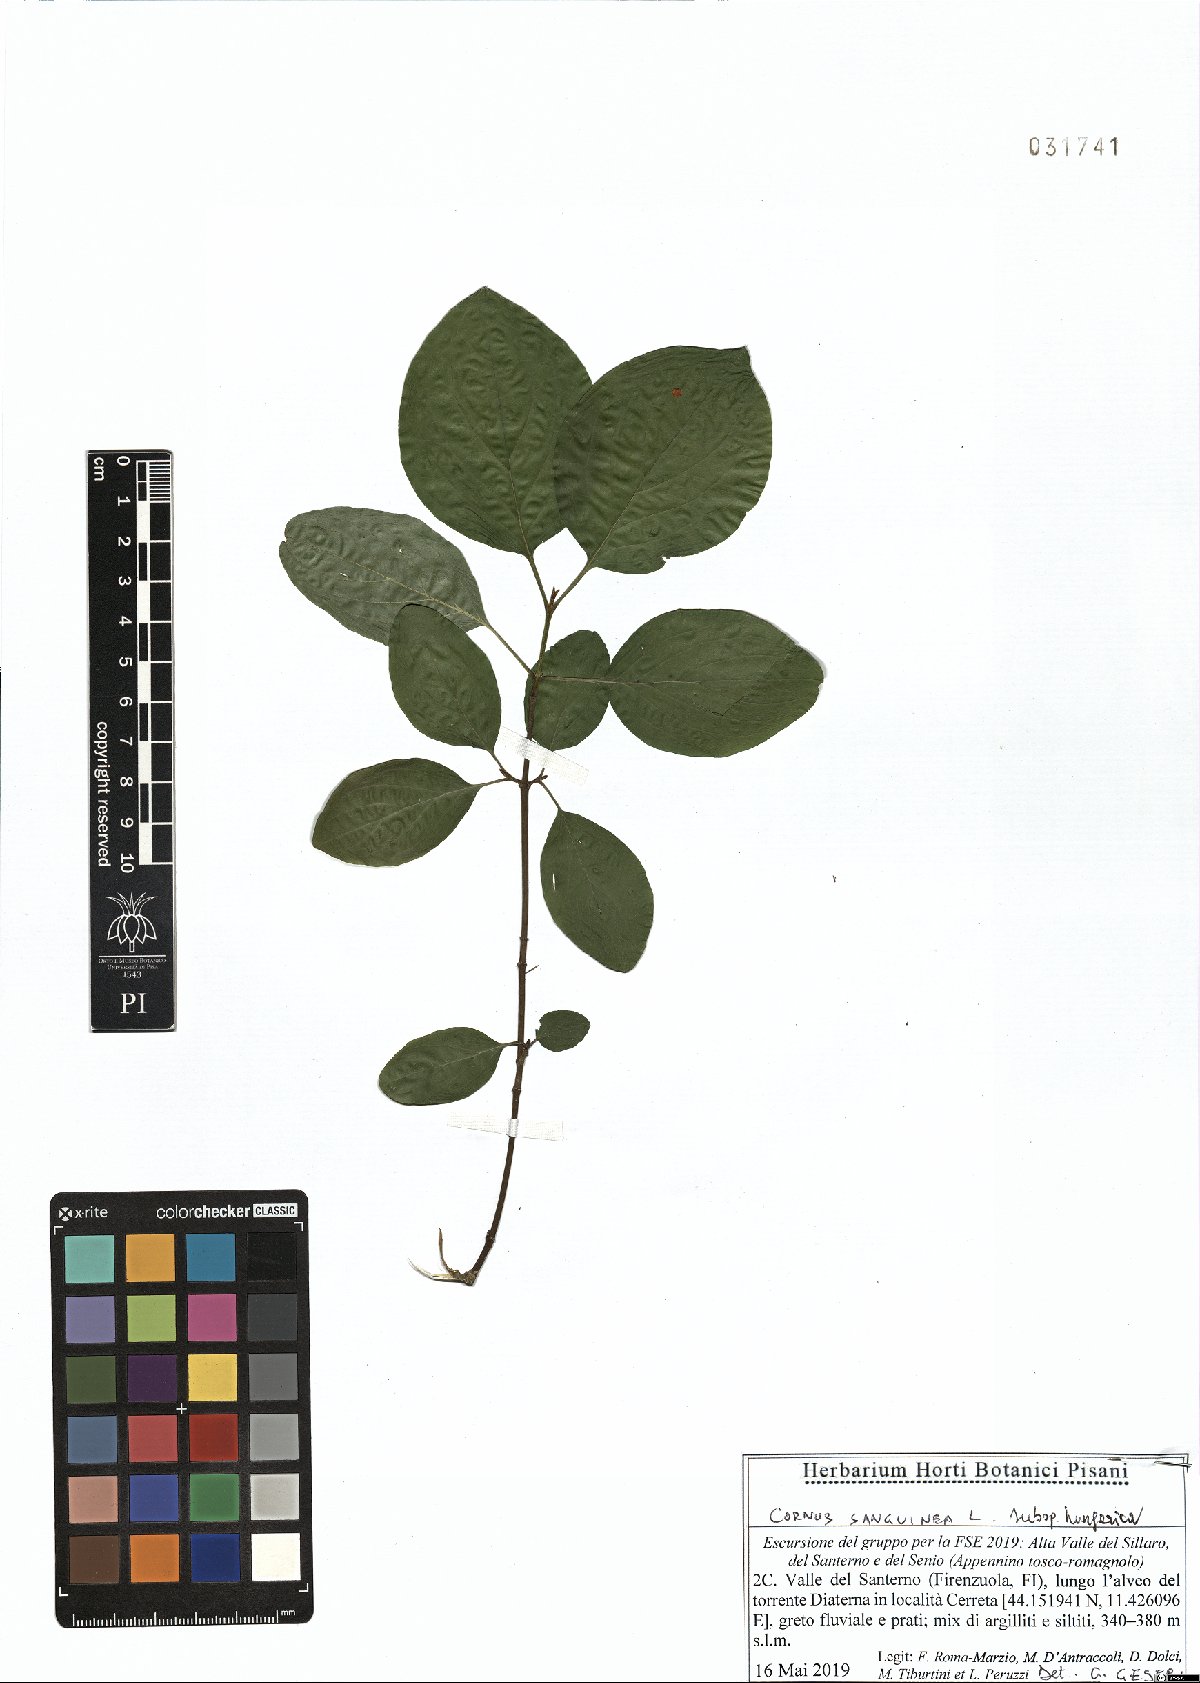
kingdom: Plantae
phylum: Tracheophyta
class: Magnoliopsida
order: Cornales
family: Cornaceae
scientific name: Cornaceae
